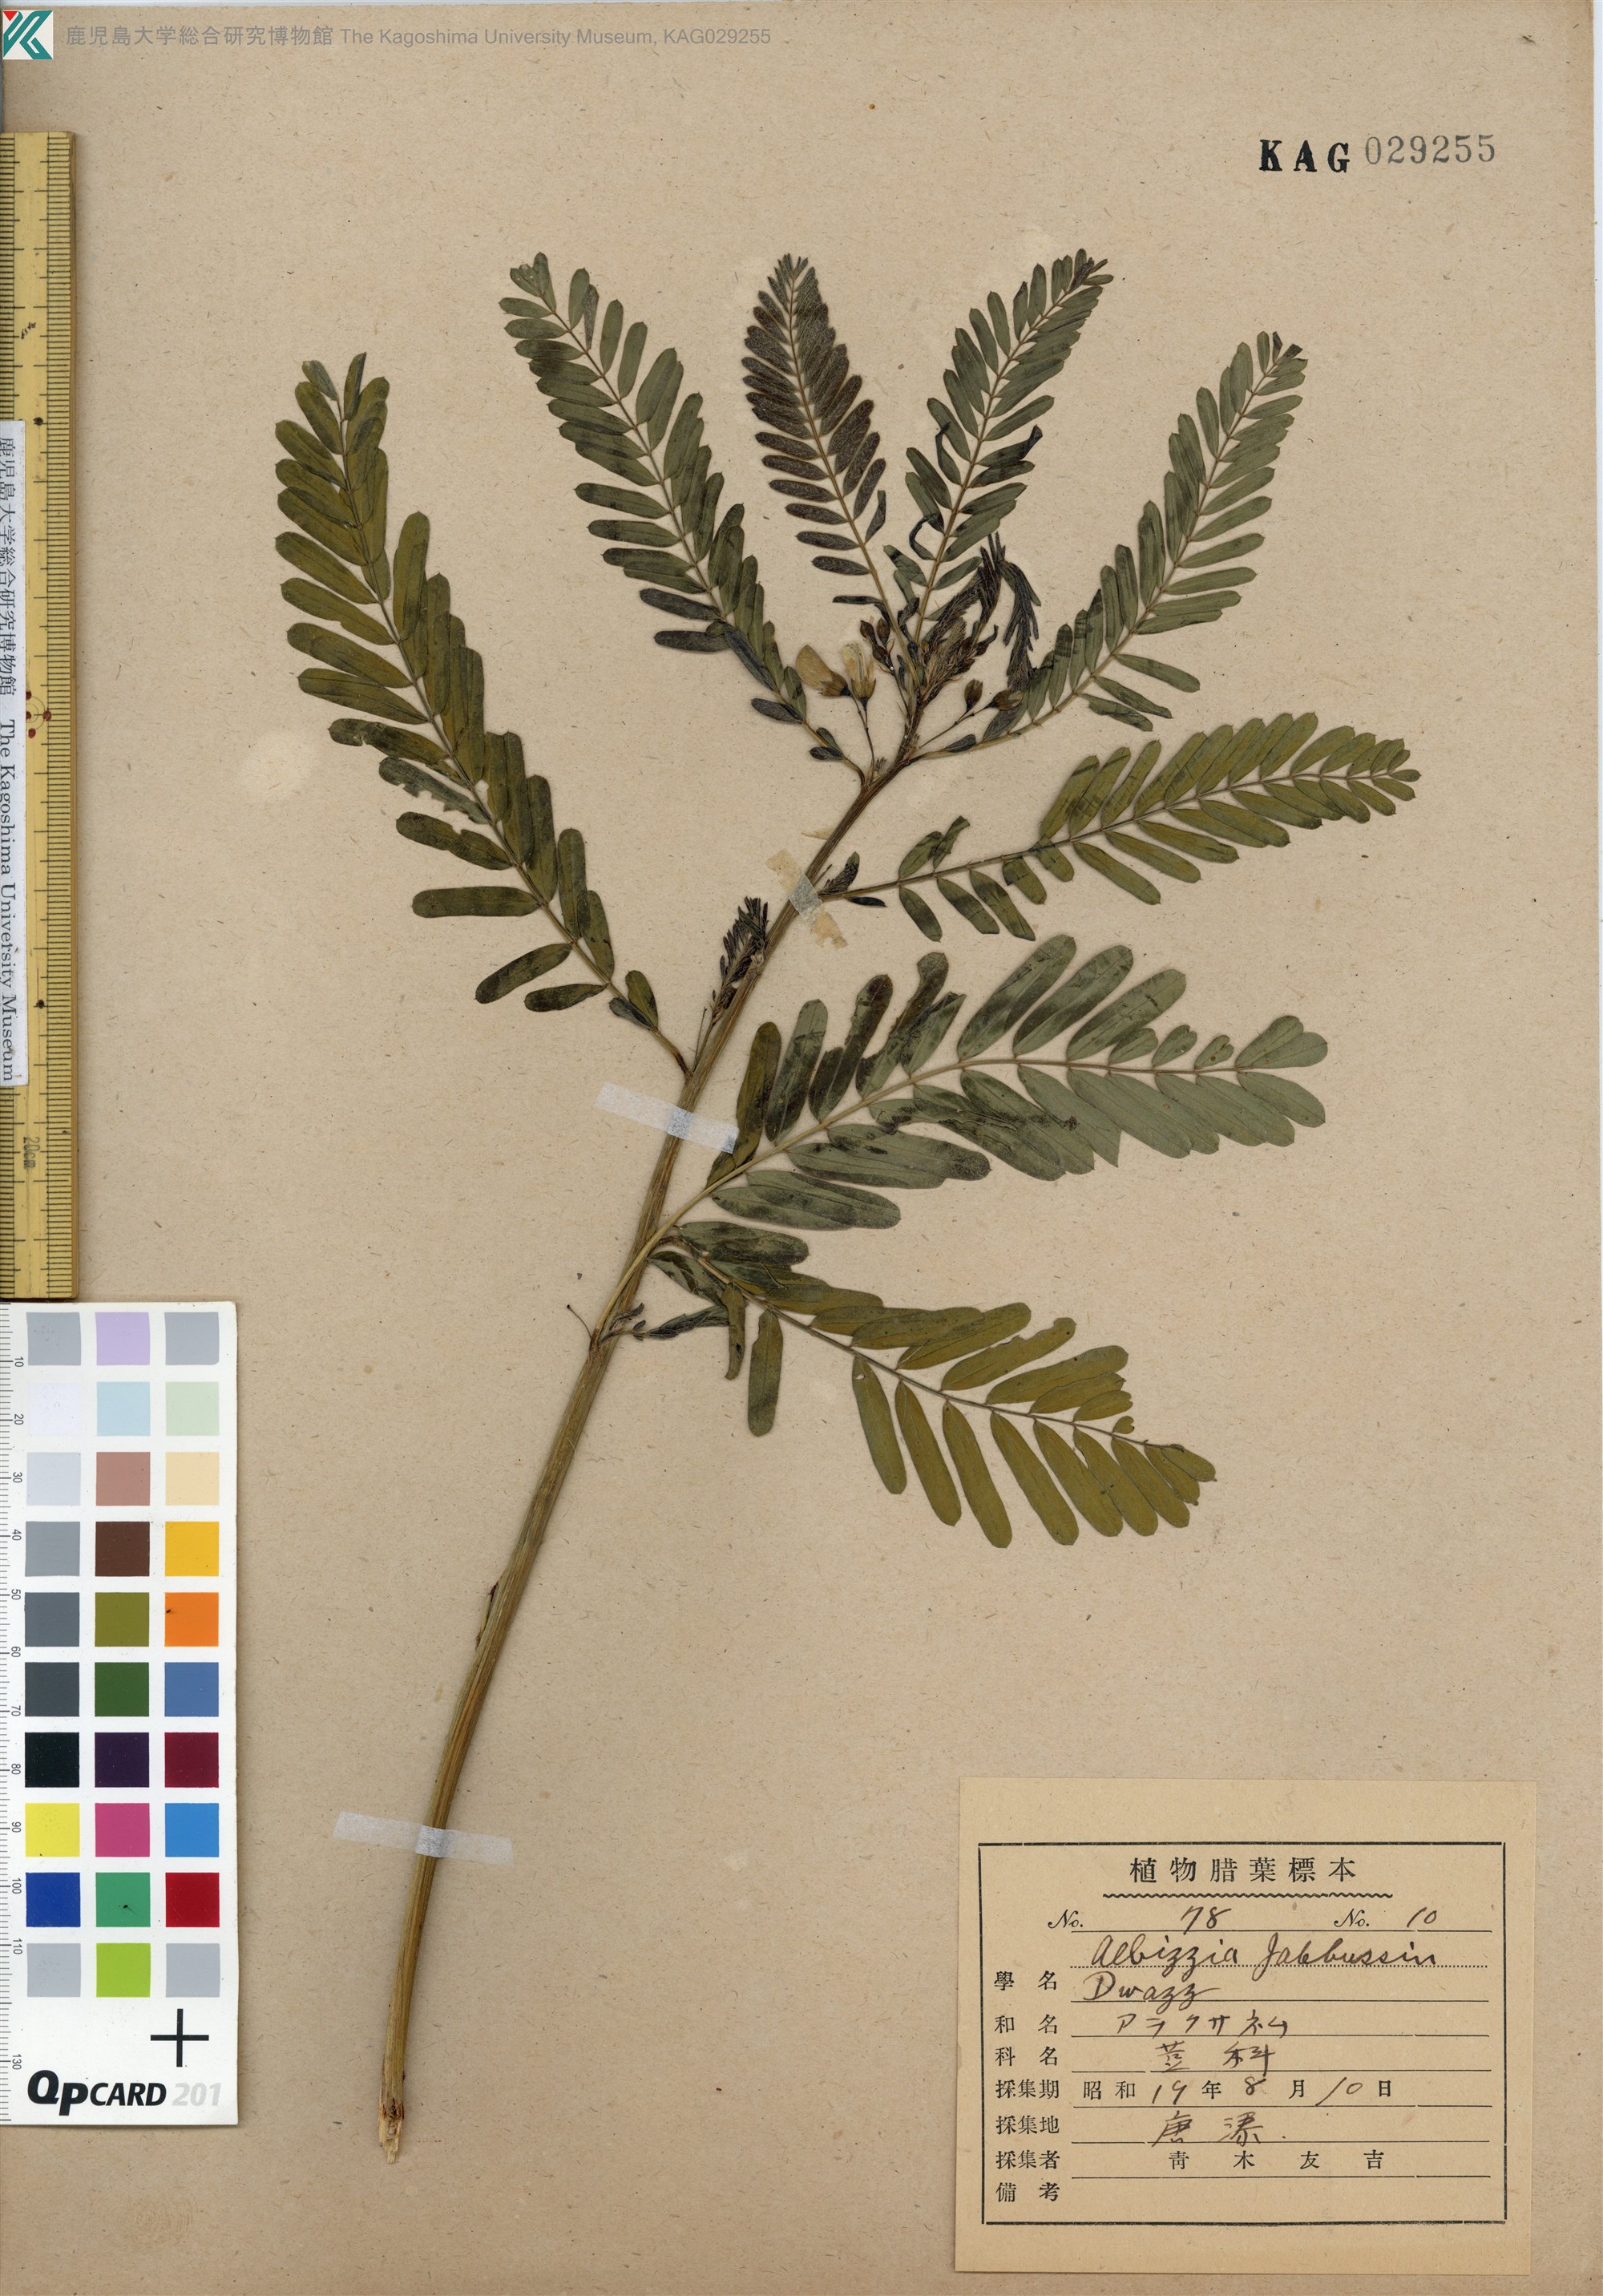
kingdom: Plantae
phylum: Tracheophyta
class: Magnoliopsida
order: Fabales
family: Fabaceae
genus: Sesbania
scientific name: Sesbania cannabina
